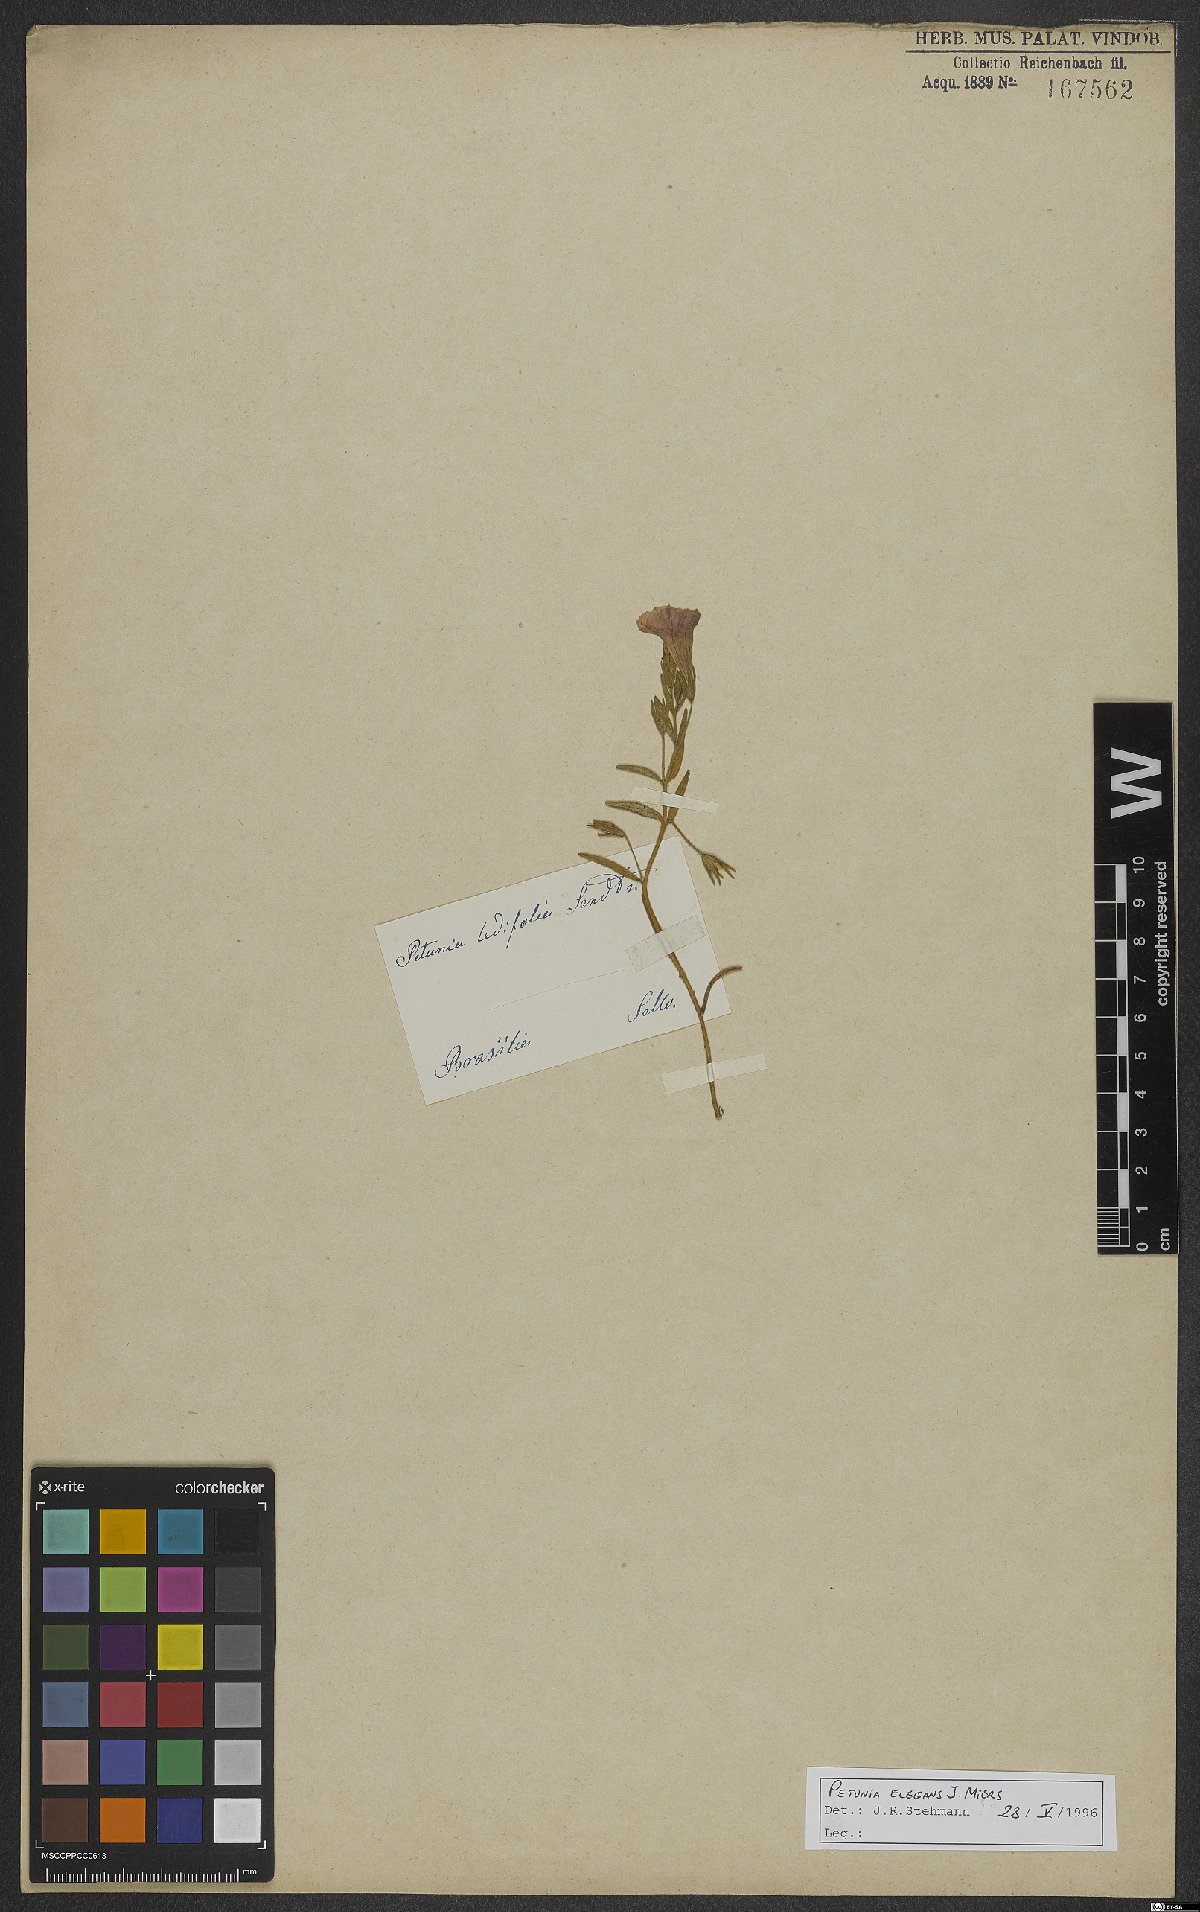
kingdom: Plantae
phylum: Tracheophyta
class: Magnoliopsida
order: Solanales
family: Solanaceae
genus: Calibrachoa
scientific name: Calibrachoa elegans
